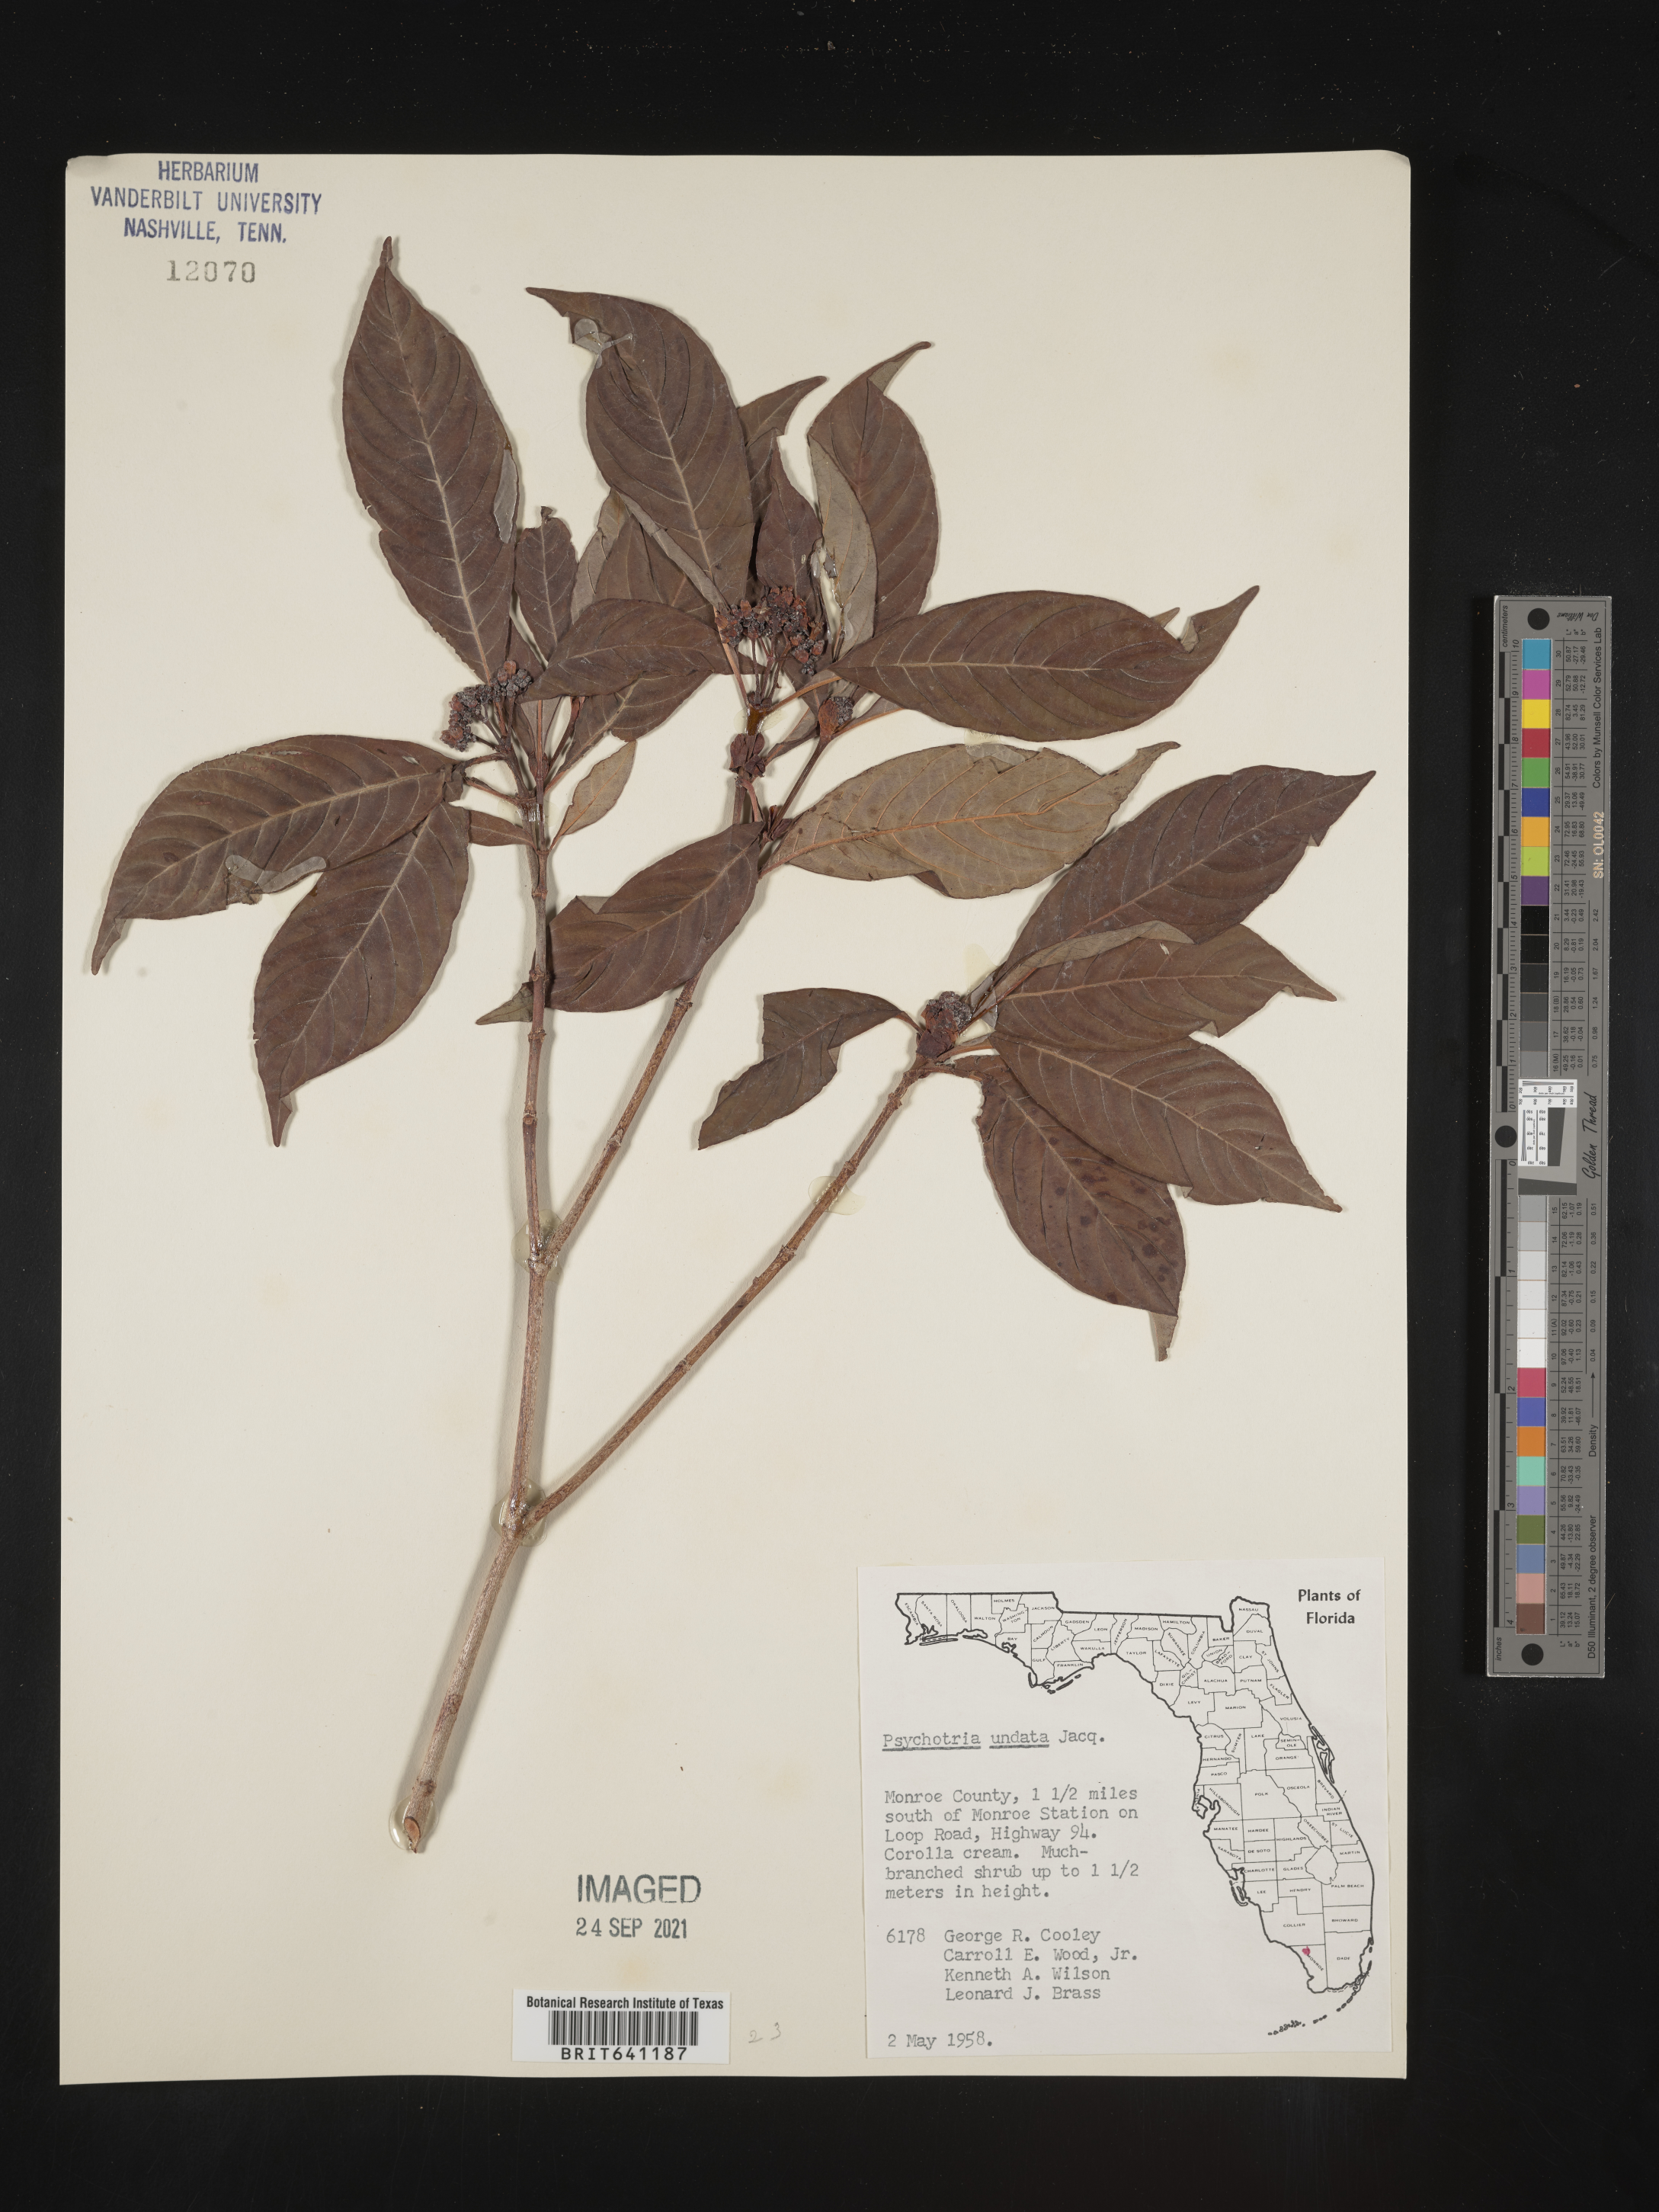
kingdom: Plantae
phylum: Tracheophyta
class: Magnoliopsida
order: Gentianales
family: Rubiaceae
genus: Psychotria
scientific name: Psychotria nervosa
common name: Bastard cankerberry
